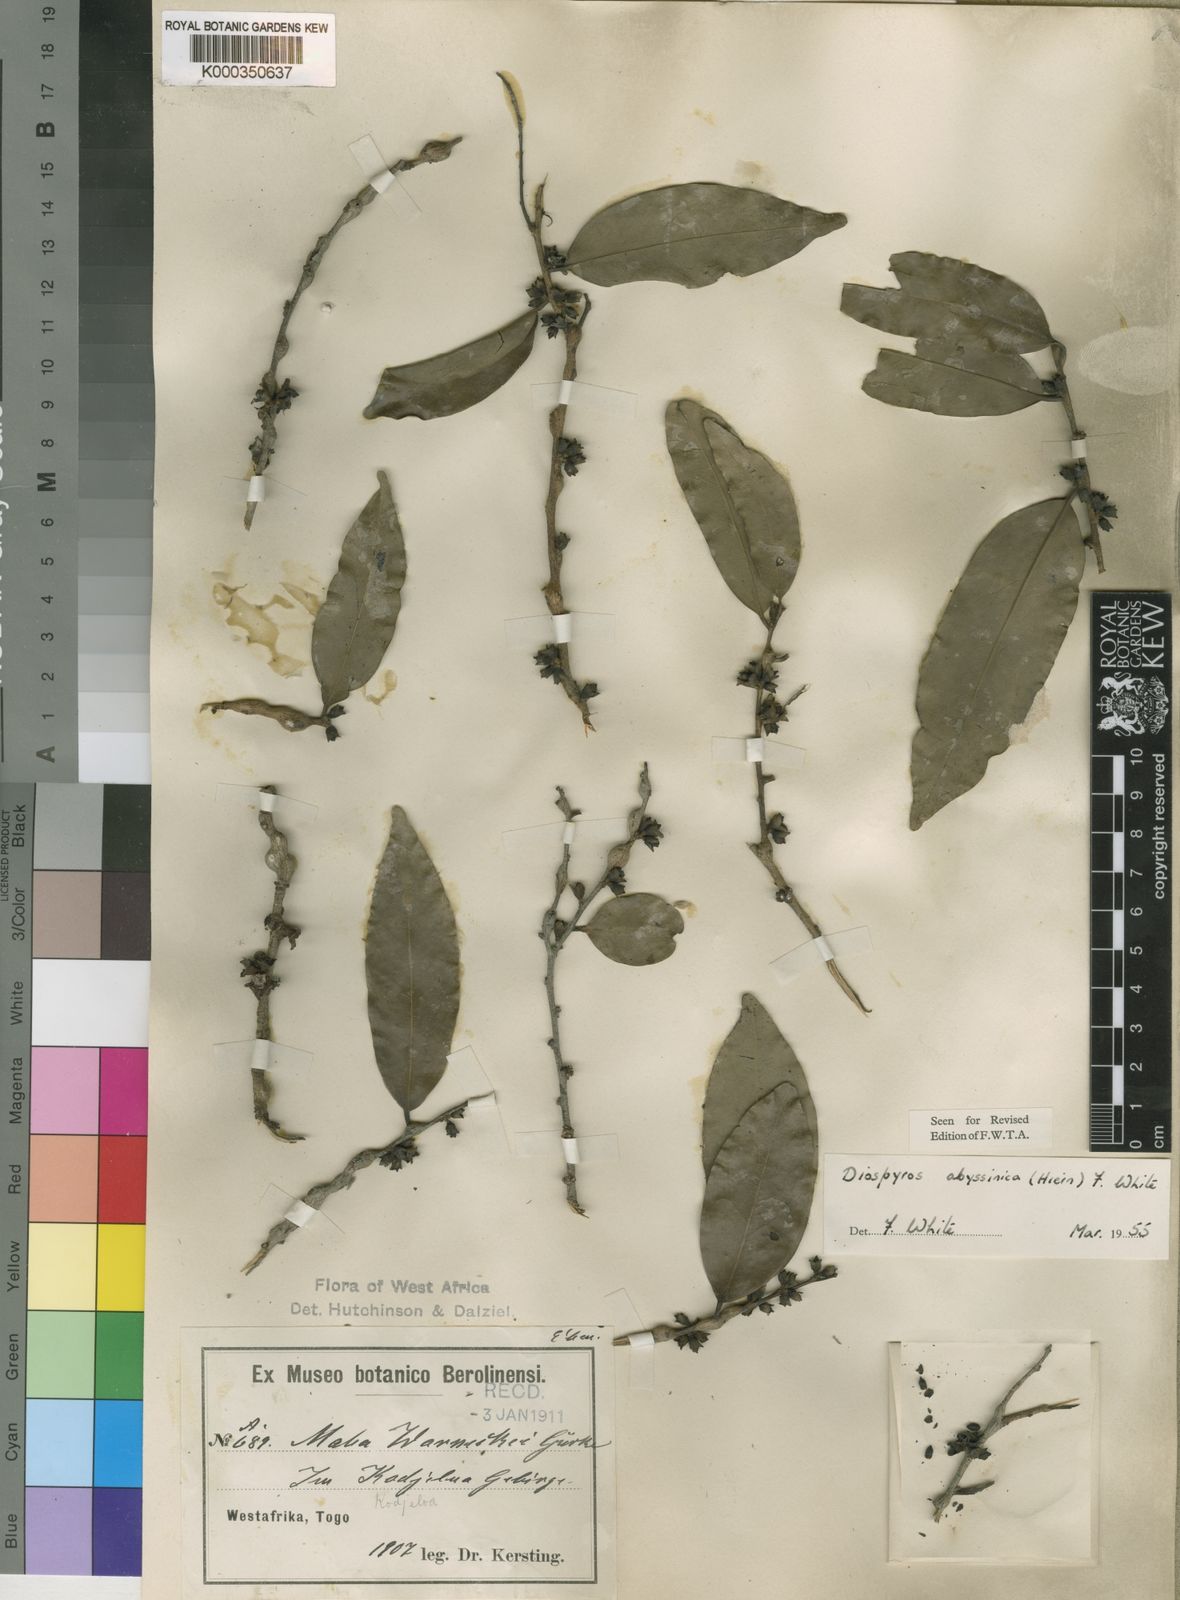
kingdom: Plantae
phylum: Tracheophyta
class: Magnoliopsida
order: Ericales
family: Ebenaceae
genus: Diospyros
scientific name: Diospyros abyssinica
